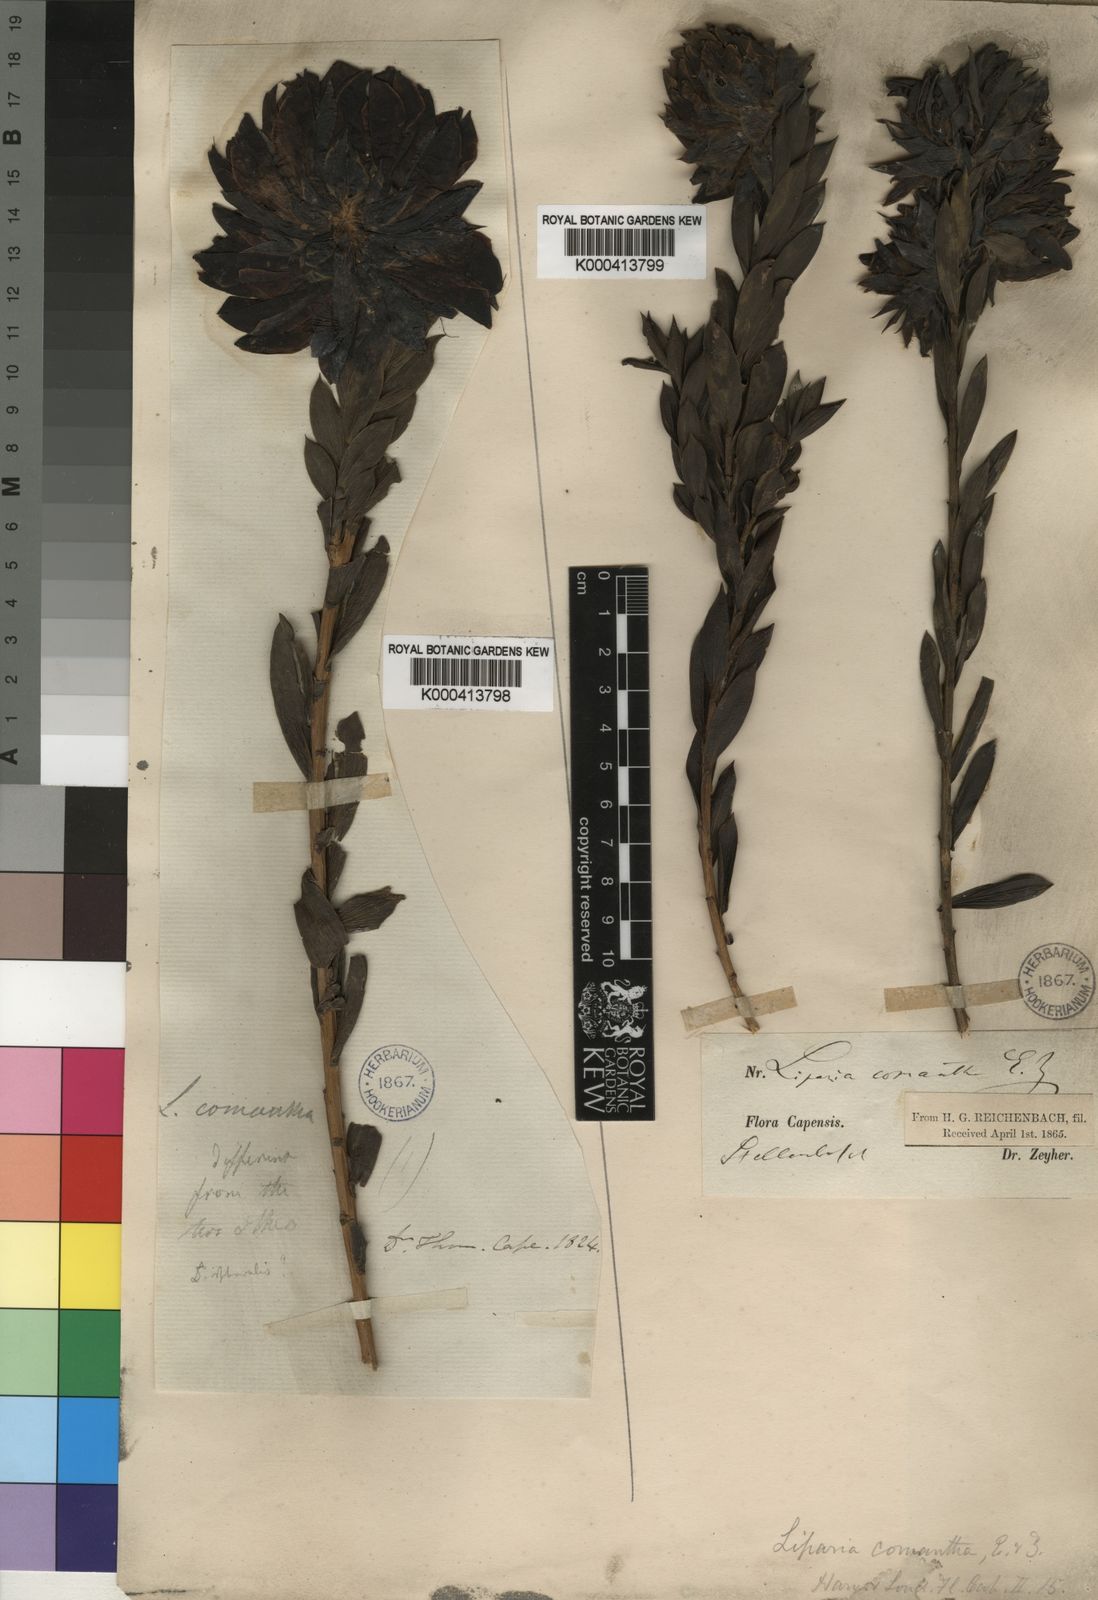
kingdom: Plantae
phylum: Tracheophyta
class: Magnoliopsida
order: Fabales
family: Fabaceae
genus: Liparia
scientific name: Liparia splendens
